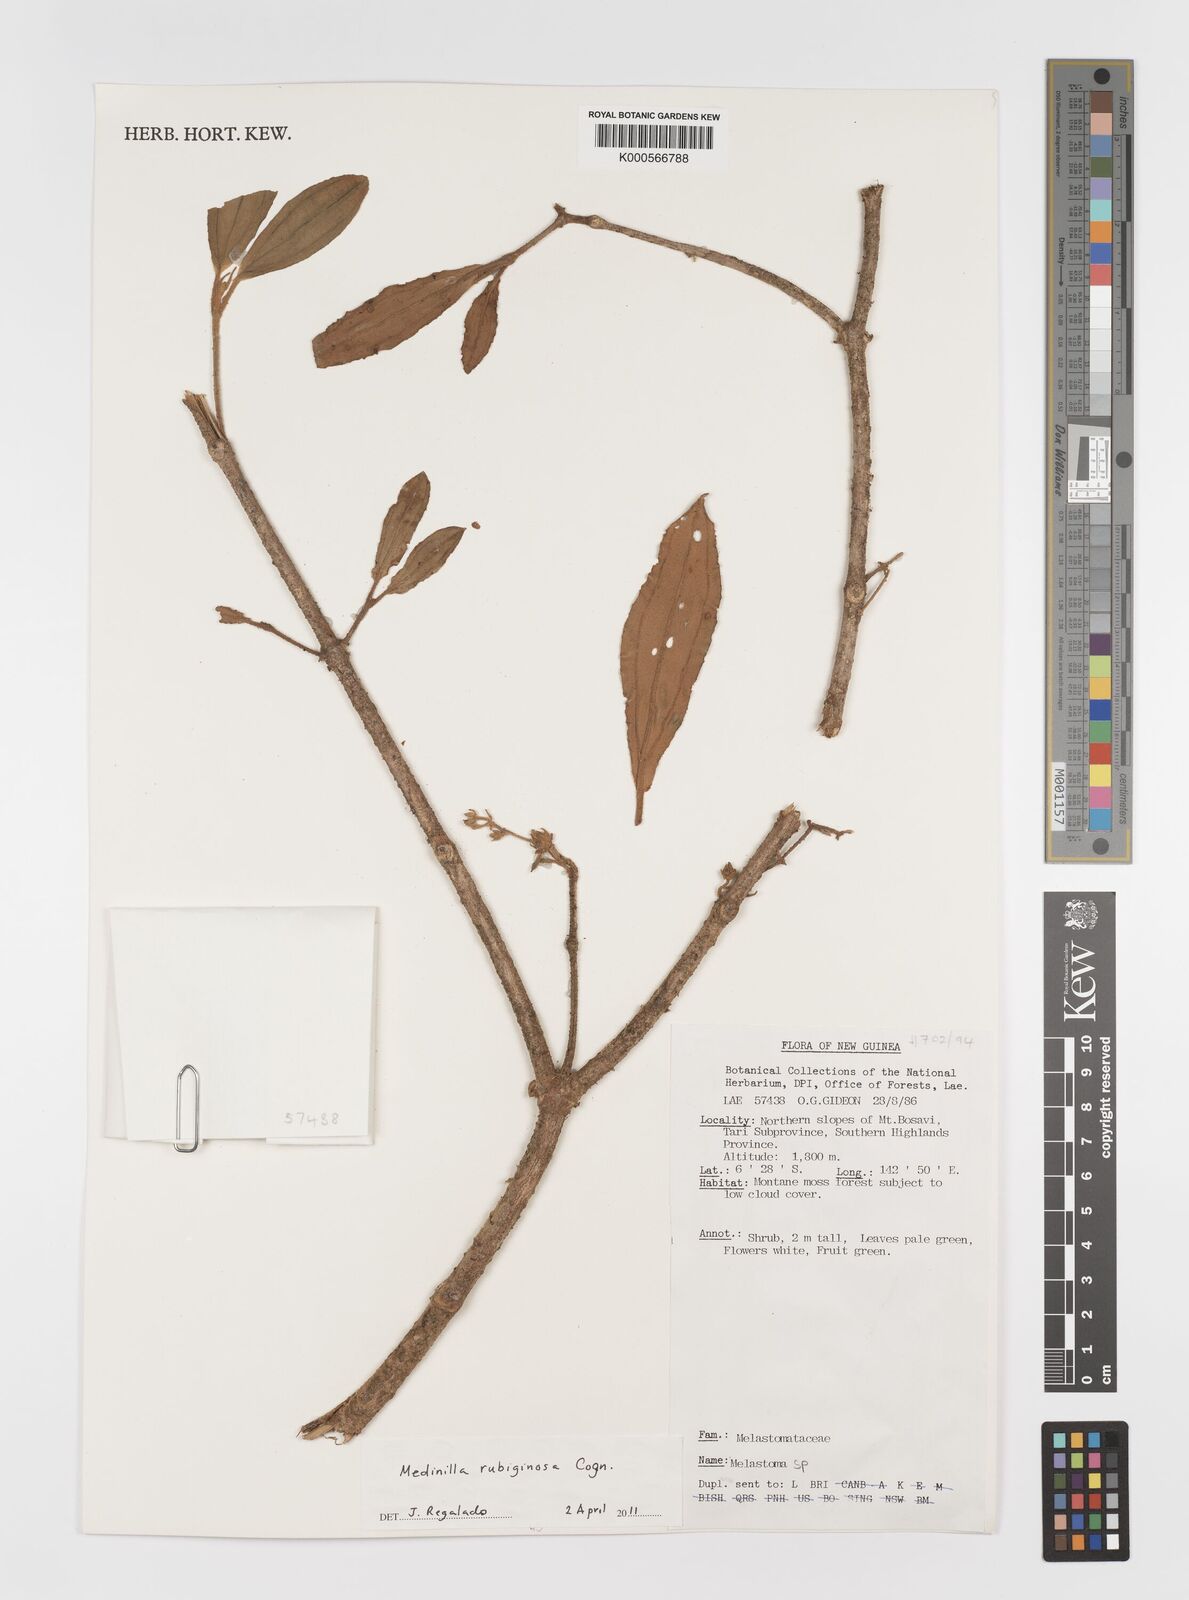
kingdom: Plantae
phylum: Tracheophyta
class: Magnoliopsida
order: Myrtales
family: Melastomataceae
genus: Medinilla
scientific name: Medinilla rubiginosa
